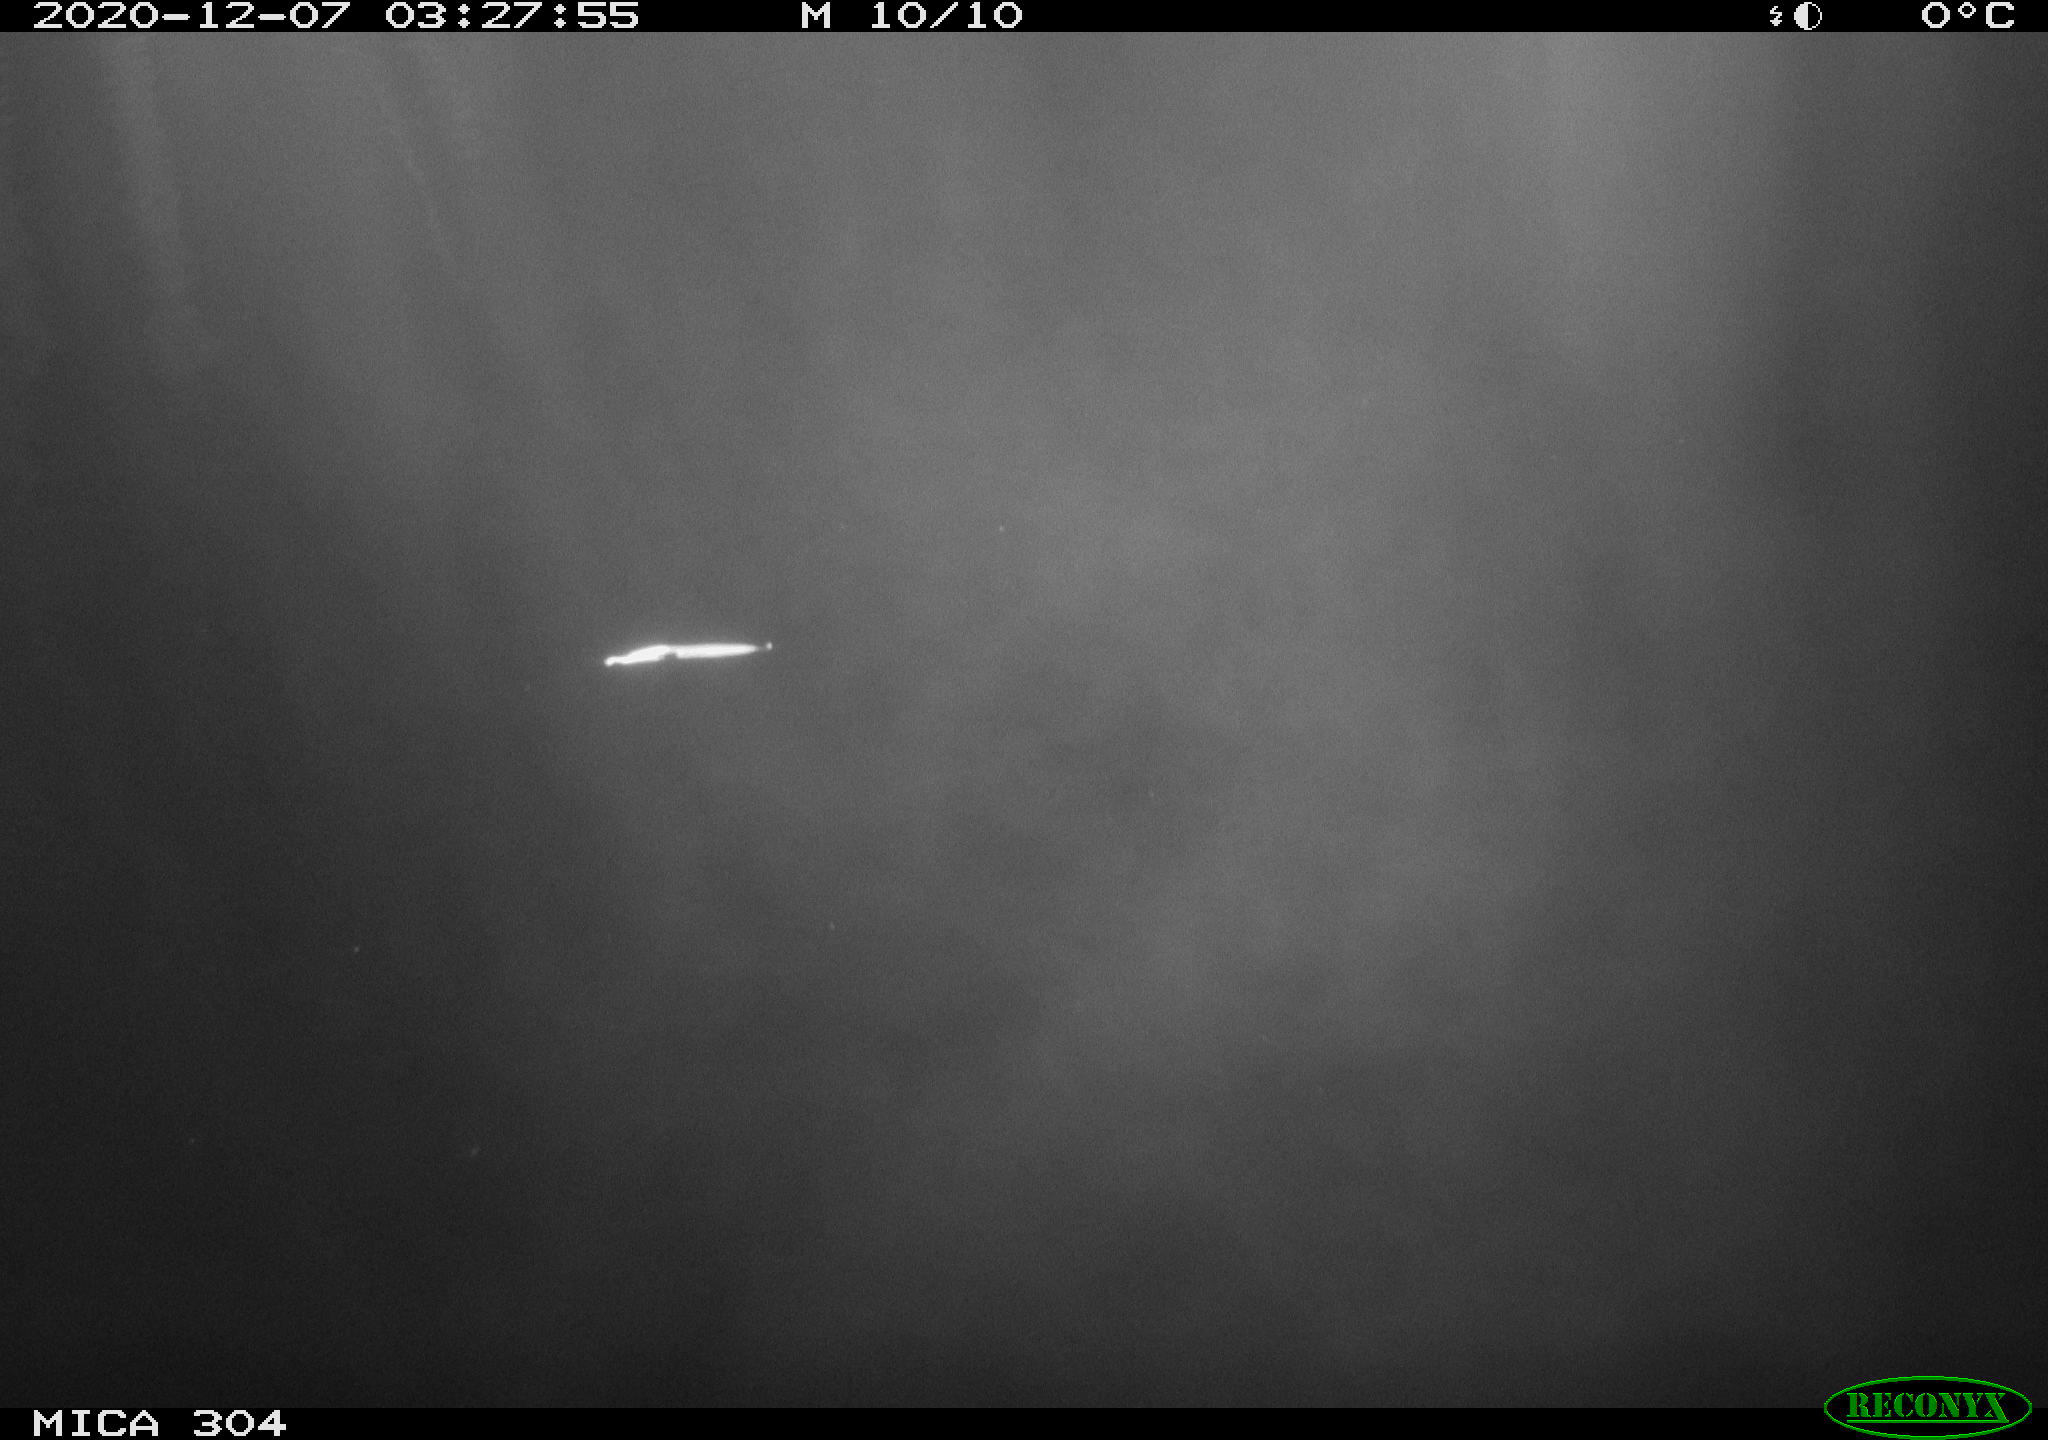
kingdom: Animalia
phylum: Chordata
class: Mammalia
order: Rodentia
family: Muridae
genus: Rattus
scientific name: Rattus norvegicus
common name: Brown rat
